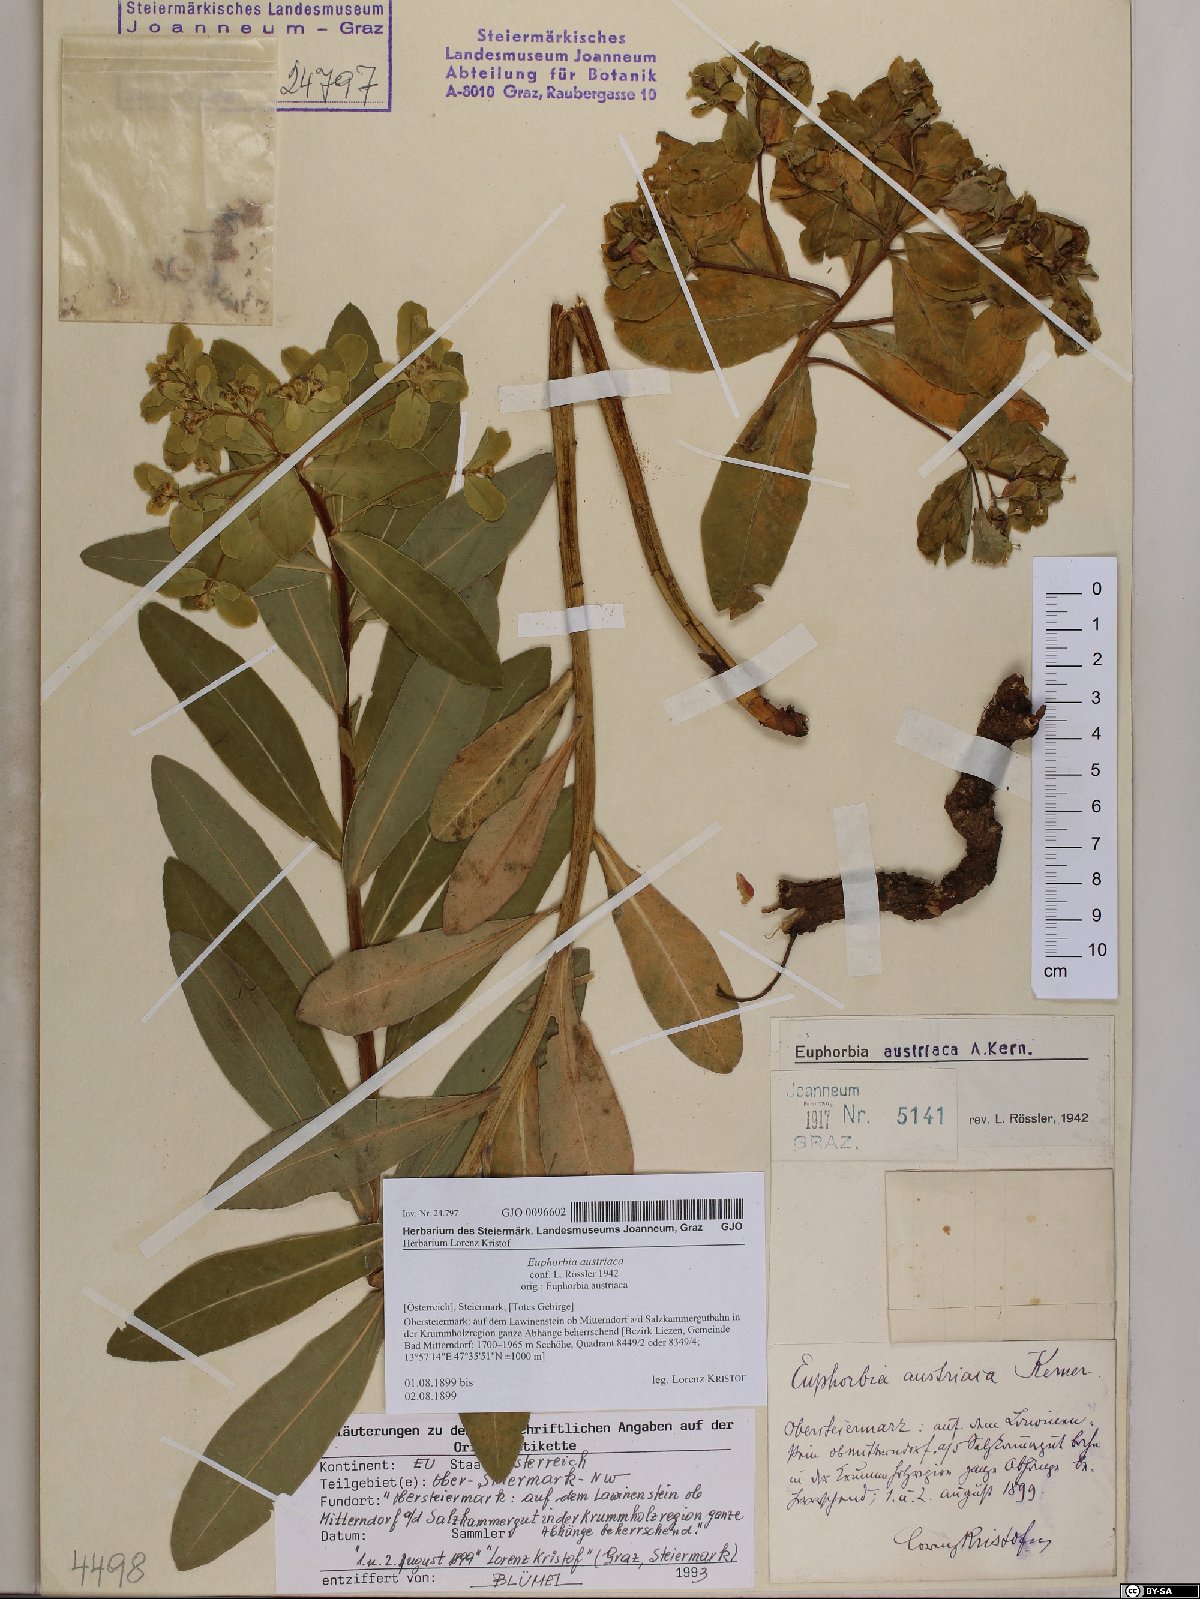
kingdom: Plantae
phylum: Tracheophyta
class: Magnoliopsida
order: Malpighiales
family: Euphorbiaceae
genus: Euphorbia
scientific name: Euphorbia austriaca
